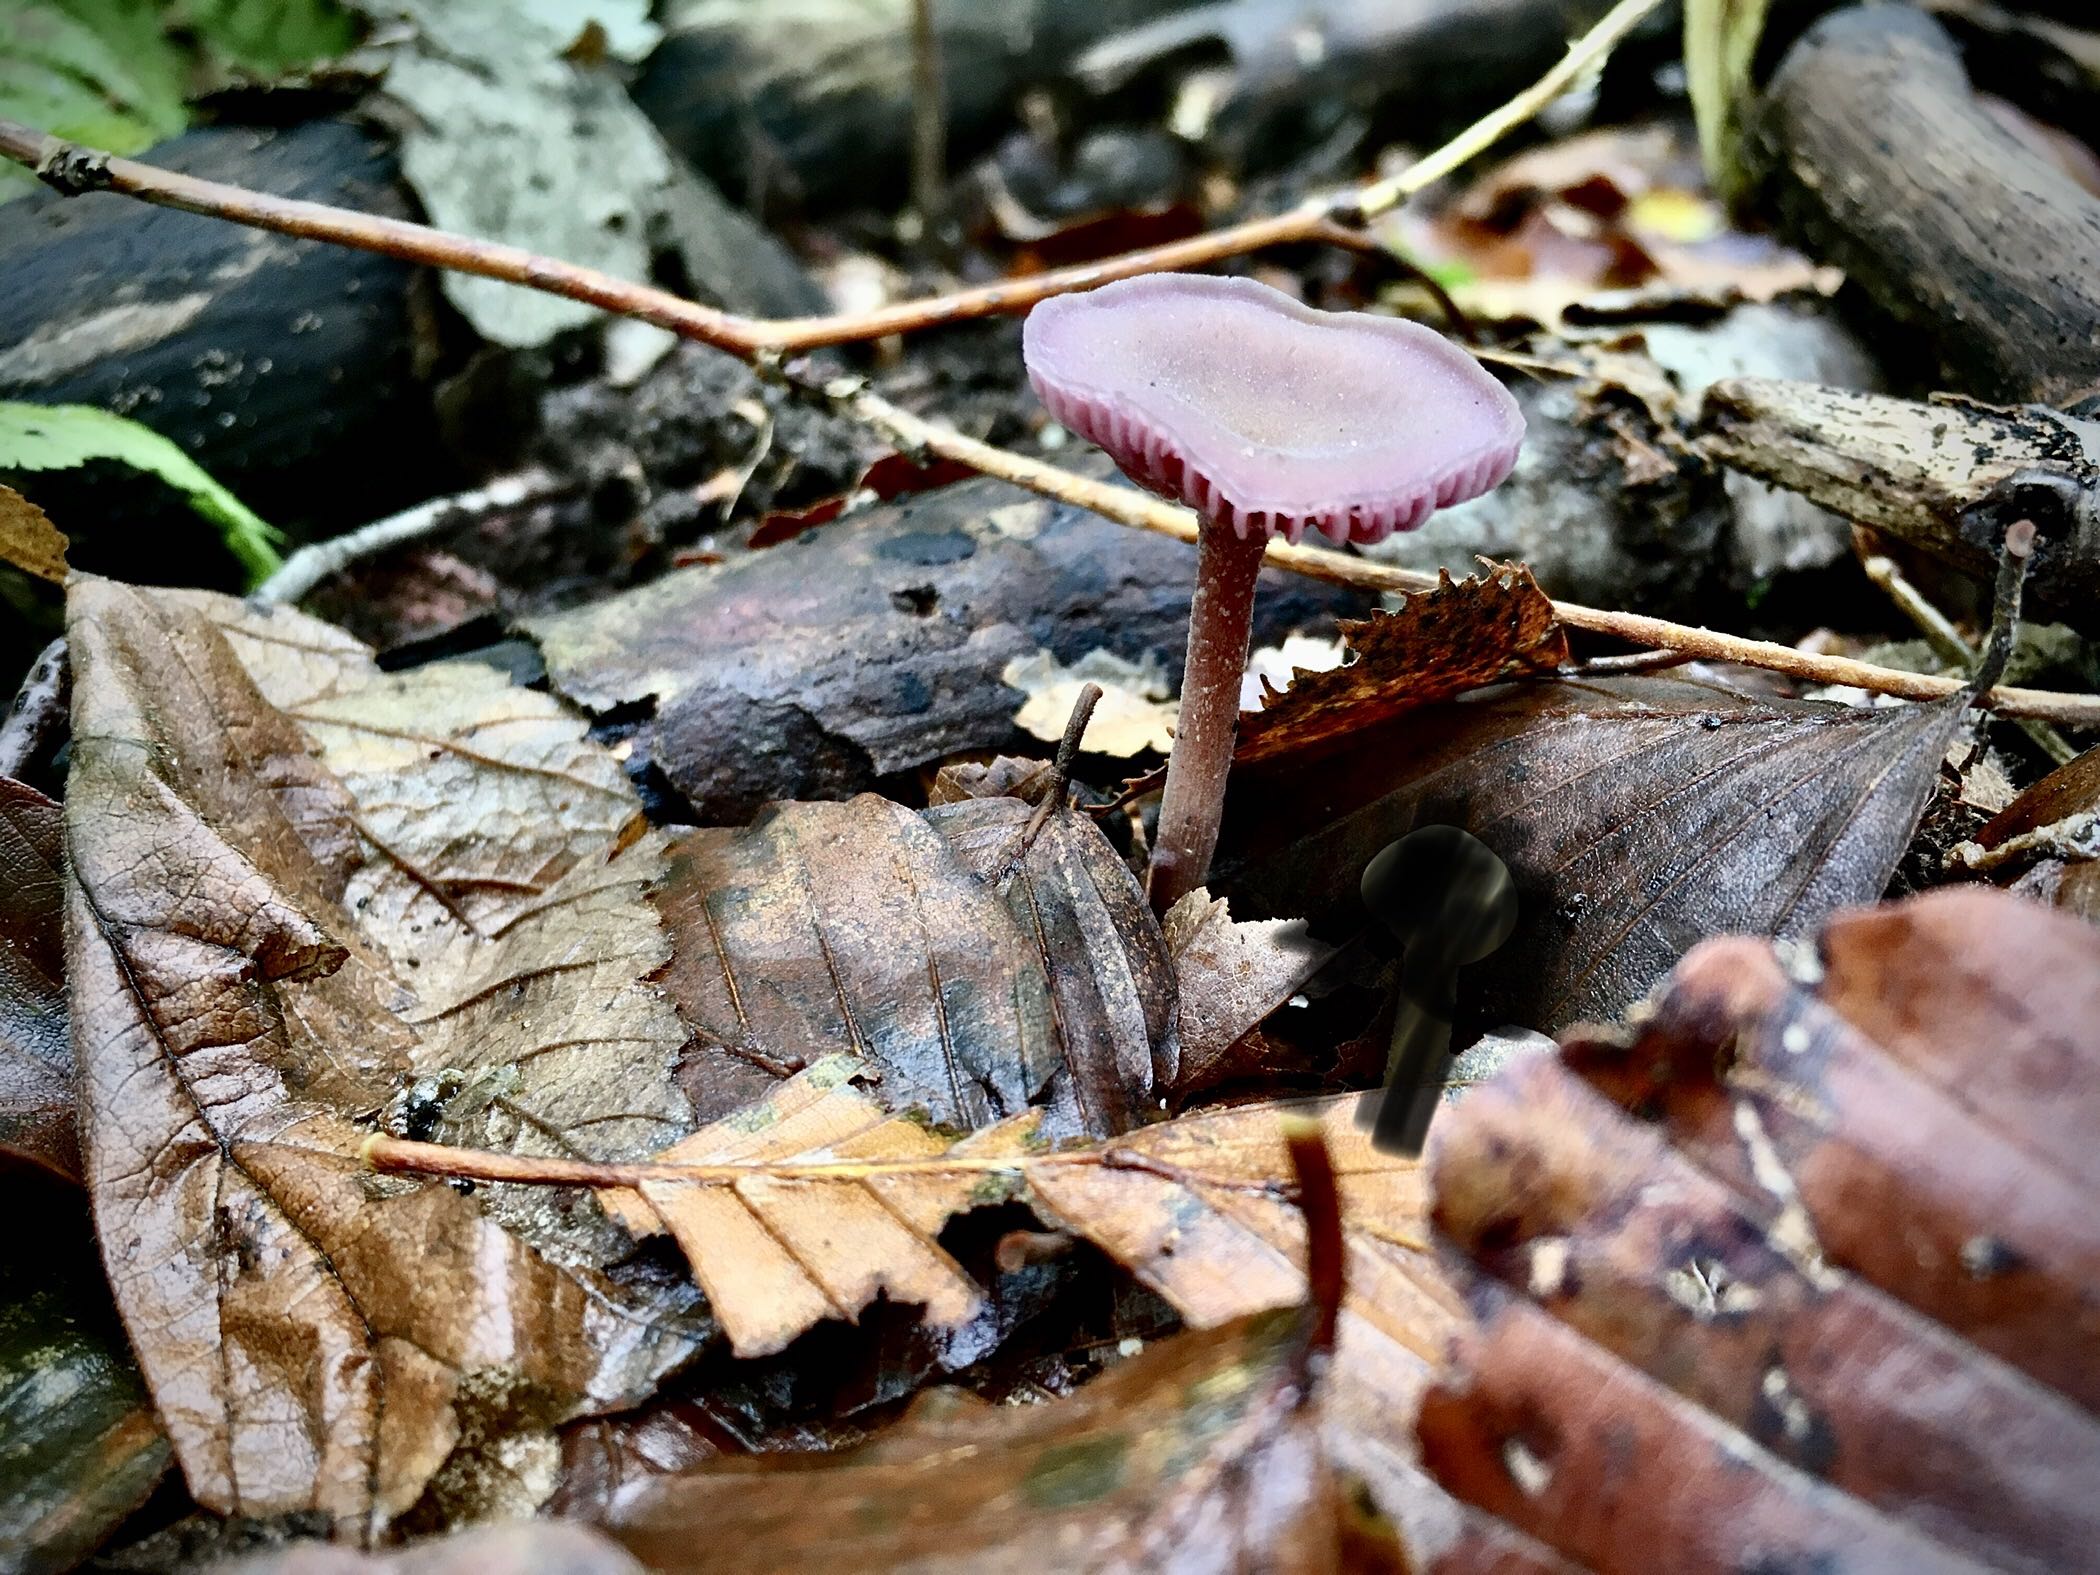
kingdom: Fungi
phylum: Basidiomycota
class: Agaricomycetes
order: Agaricales
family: Hydnangiaceae
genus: Laccaria
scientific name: Laccaria amethystina
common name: violet ametysthat
